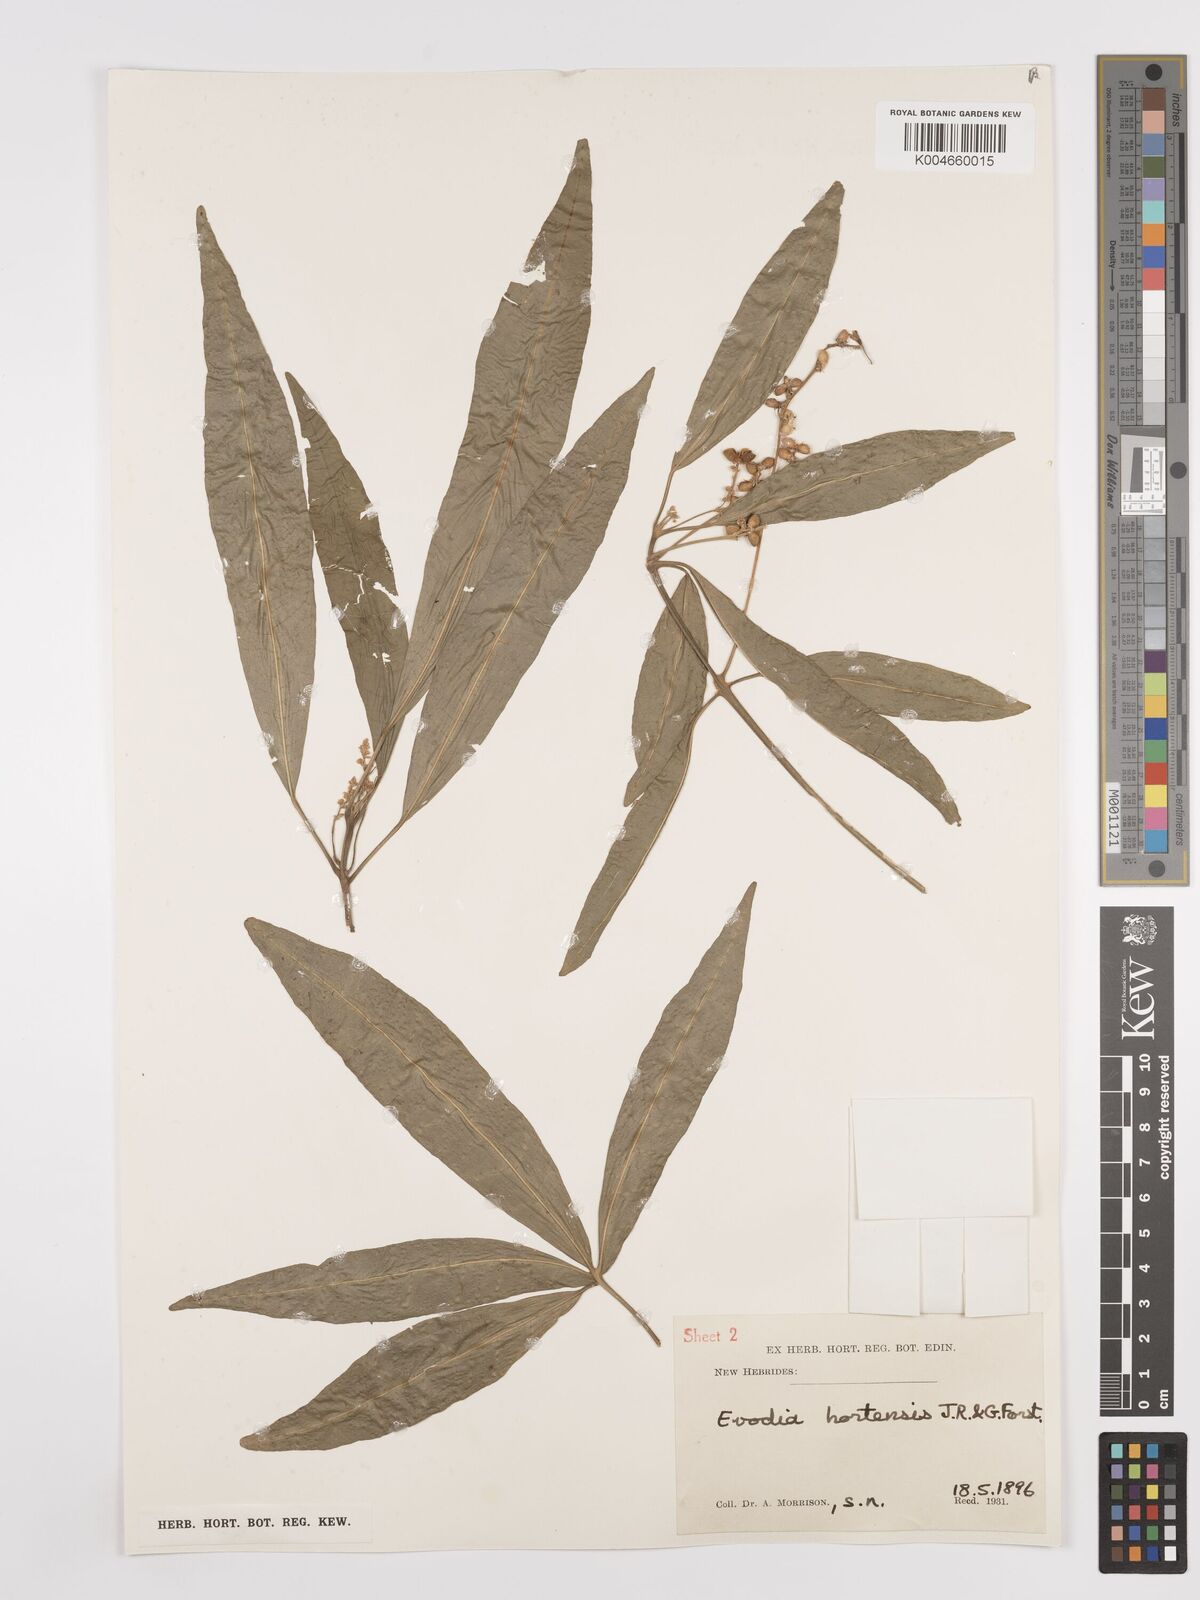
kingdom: Plantae
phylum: Tracheophyta
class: Magnoliopsida
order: Sapindales
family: Rutaceae
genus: Euodia
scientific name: Euodia hortensis
